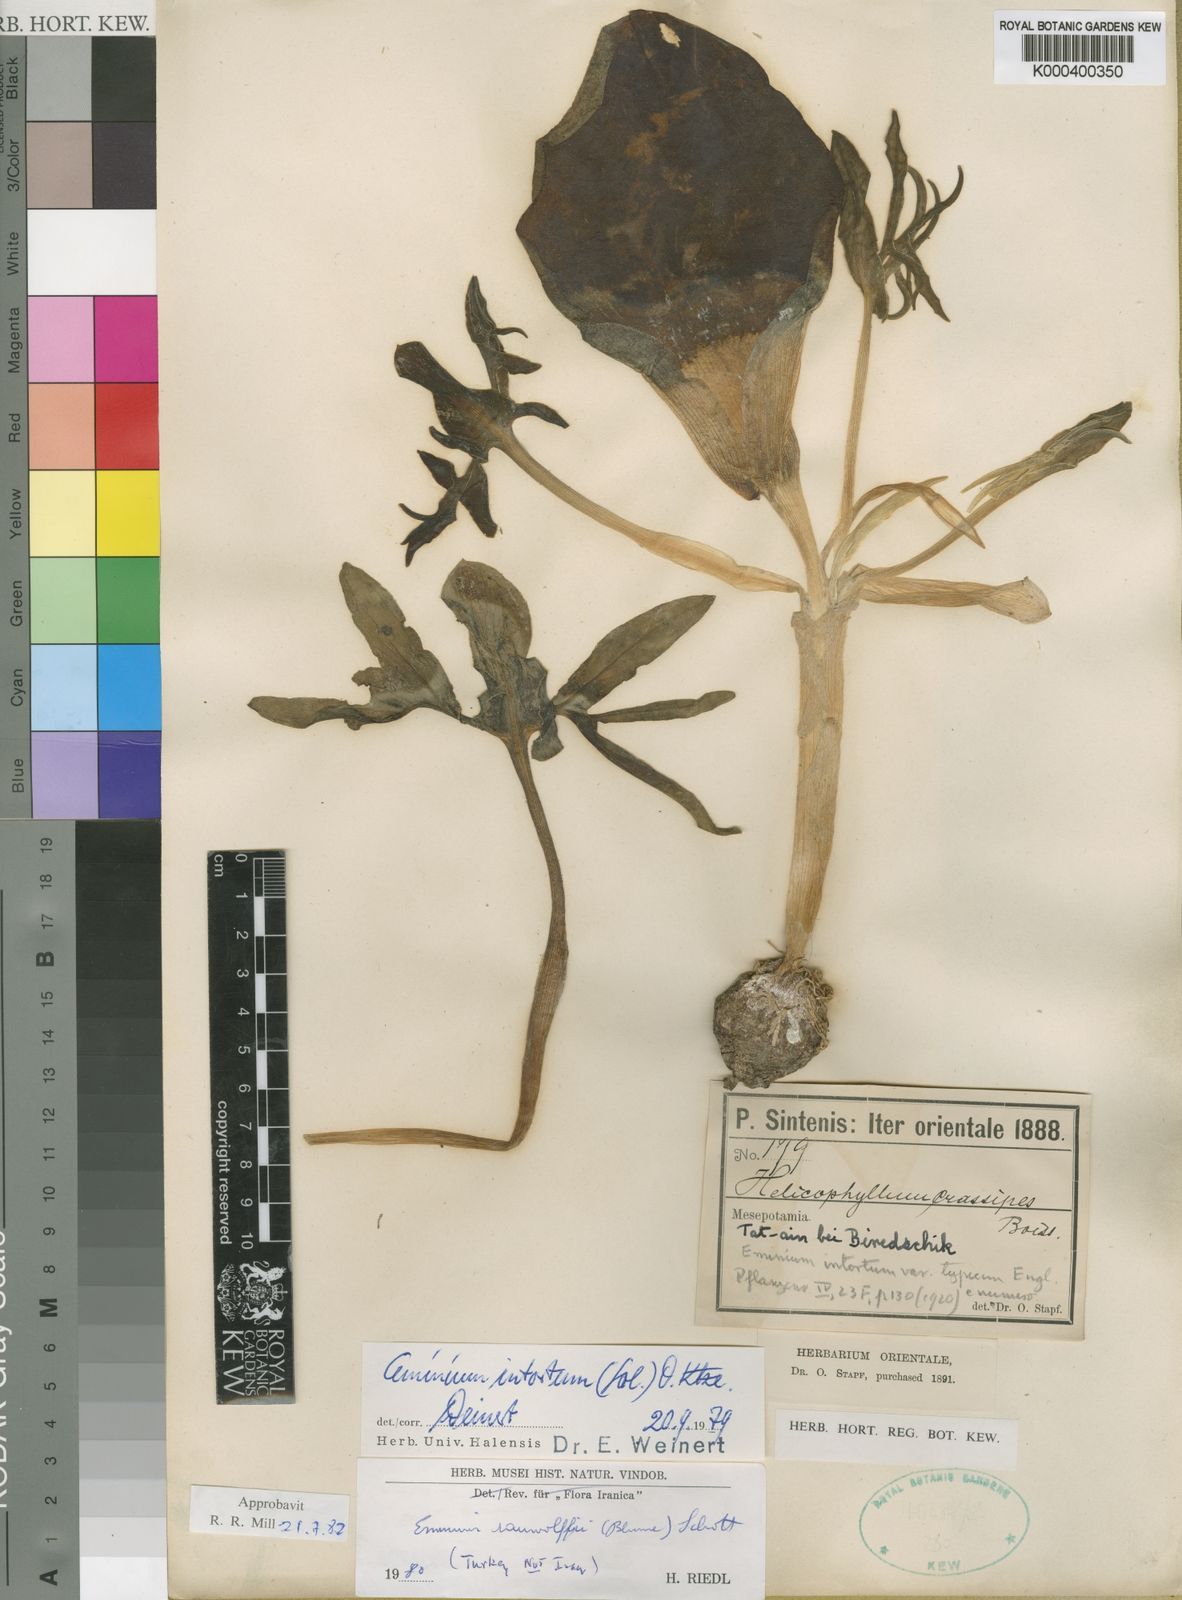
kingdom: Plantae
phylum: Tracheophyta
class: Liliopsida
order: Alismatales
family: Araceae
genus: Eminium
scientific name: Eminium rauwolffii
